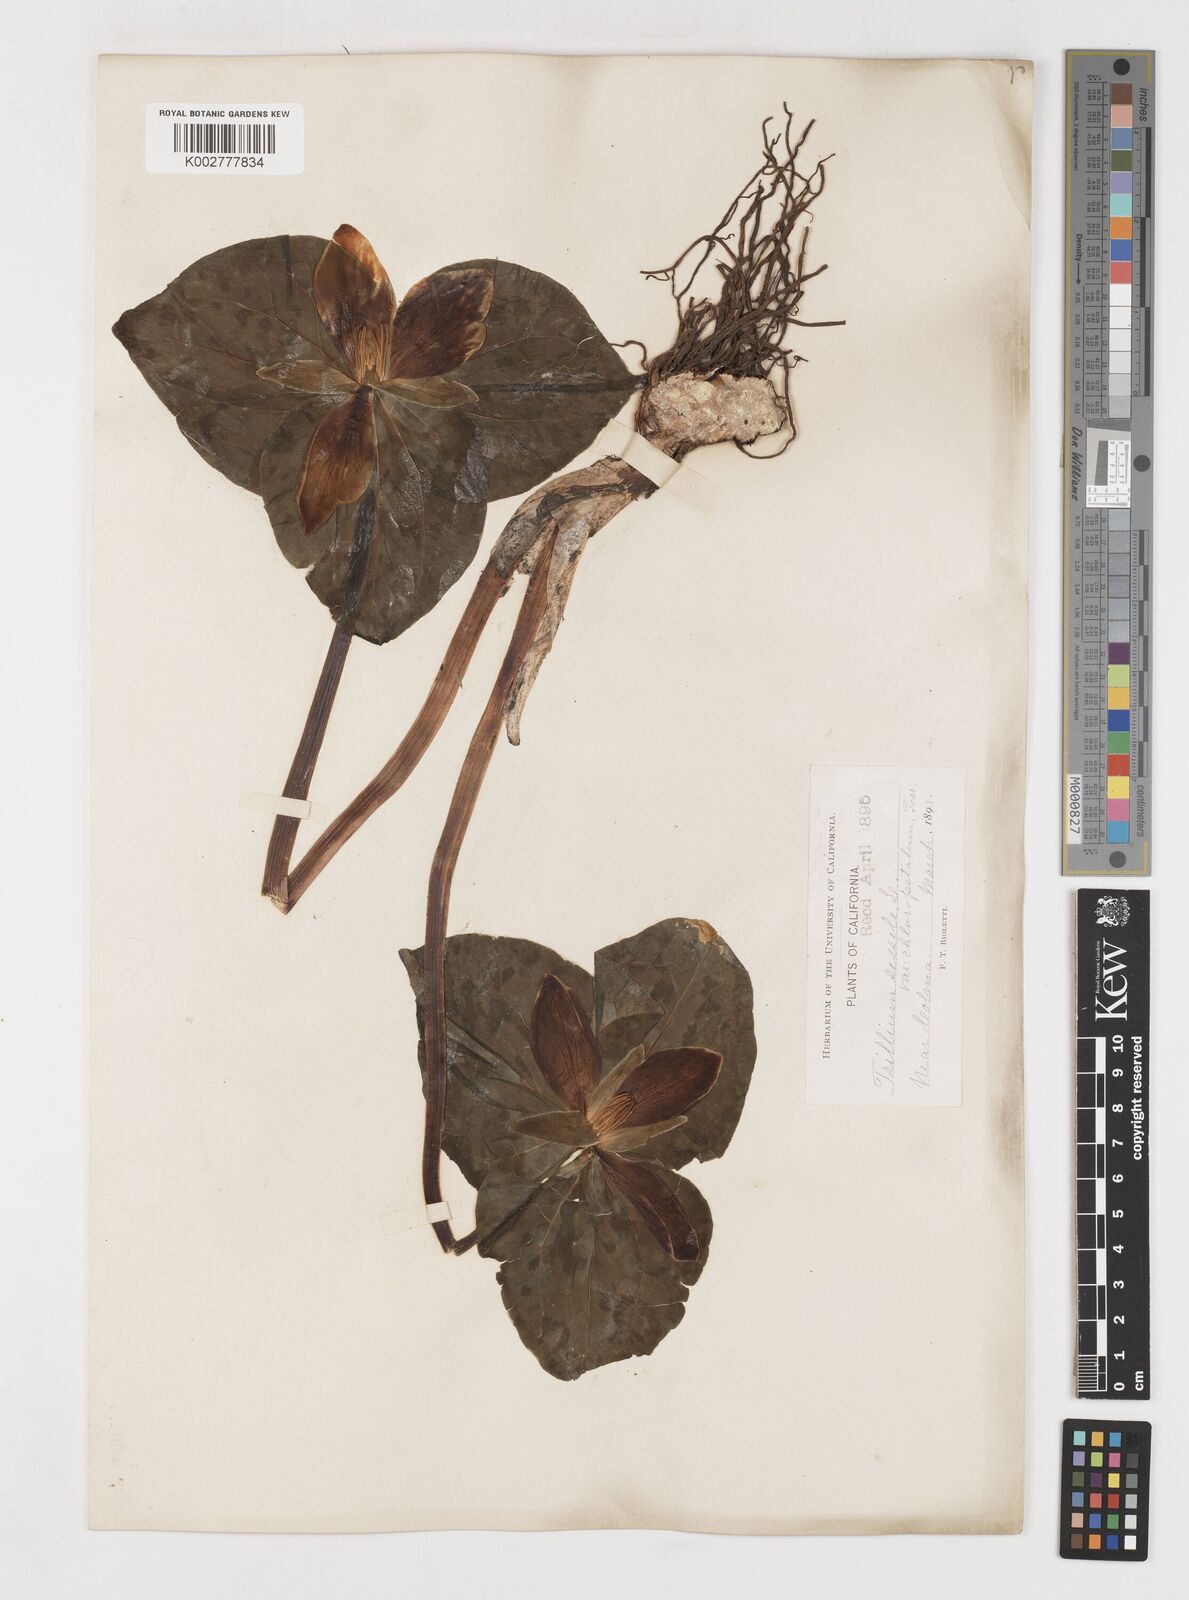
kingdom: Plantae
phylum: Tracheophyta
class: Liliopsida
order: Liliales
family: Melanthiaceae
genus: Trillium
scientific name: Trillium chloropetalum
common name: Giant trillium
